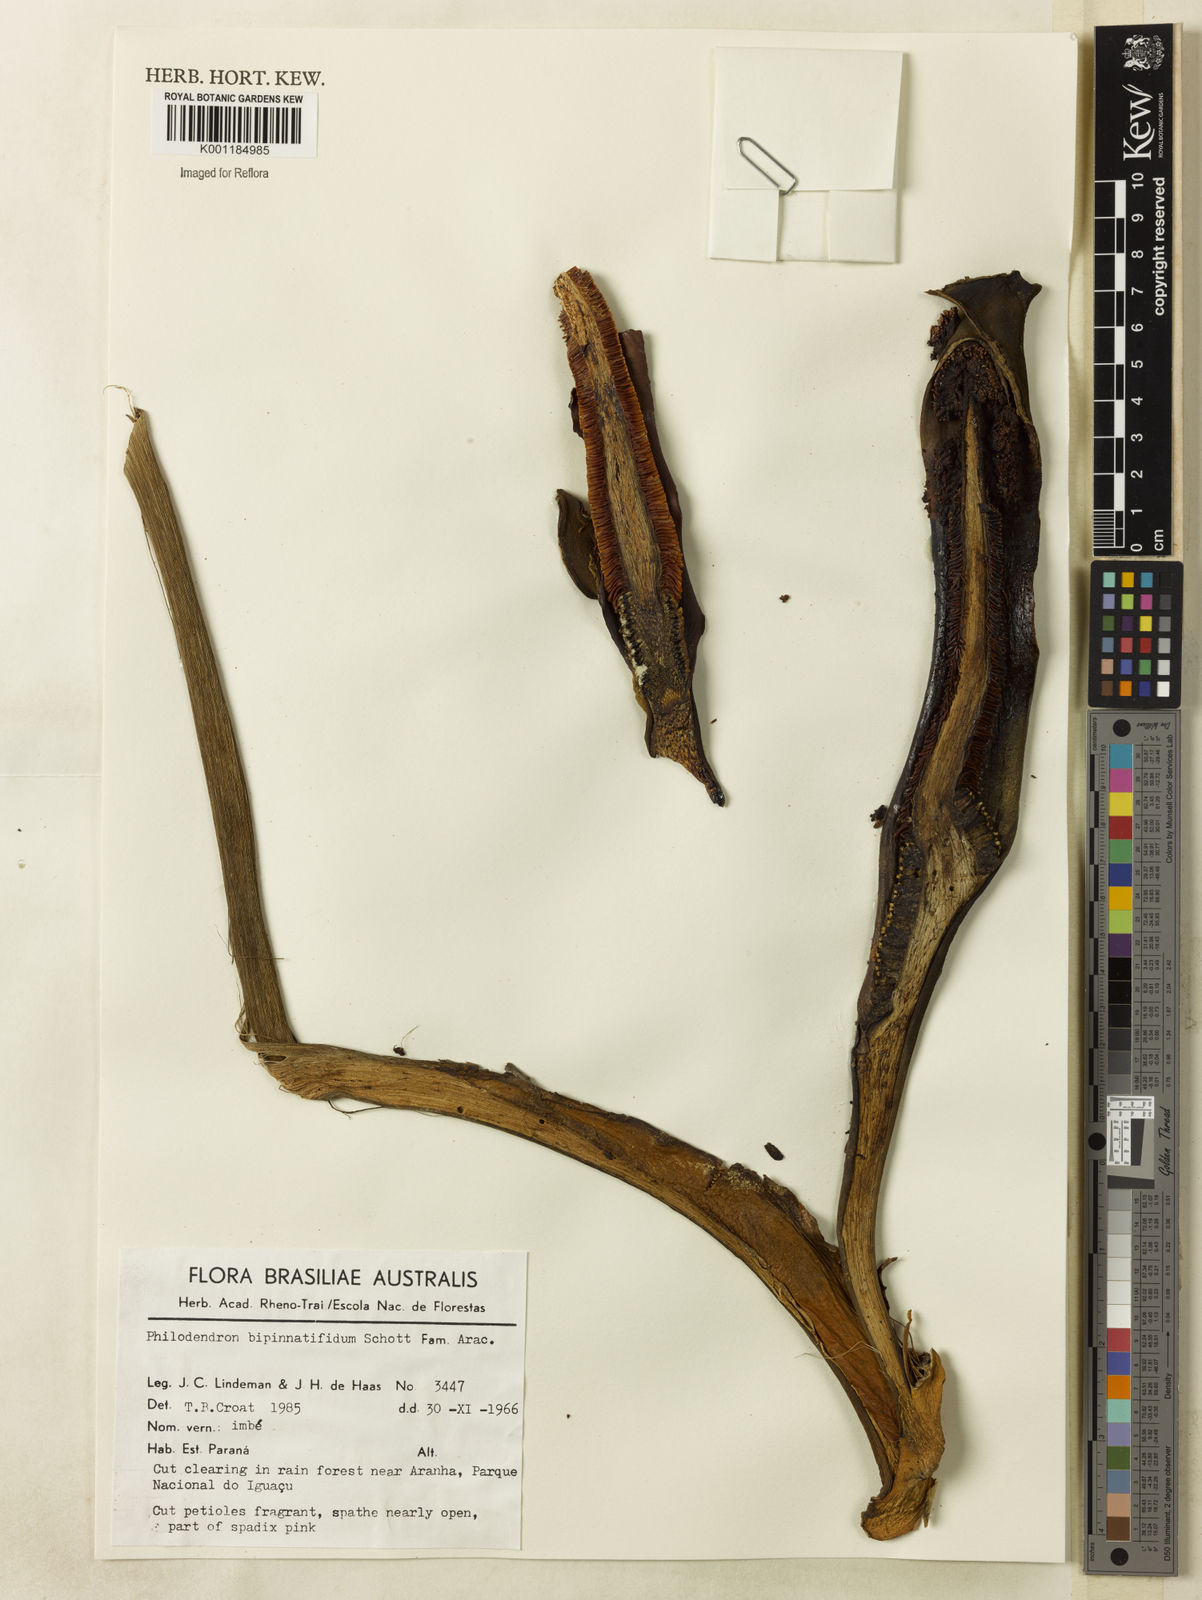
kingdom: Plantae
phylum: Tracheophyta
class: Liliopsida
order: Alismatales
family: Araceae
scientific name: Araceae
